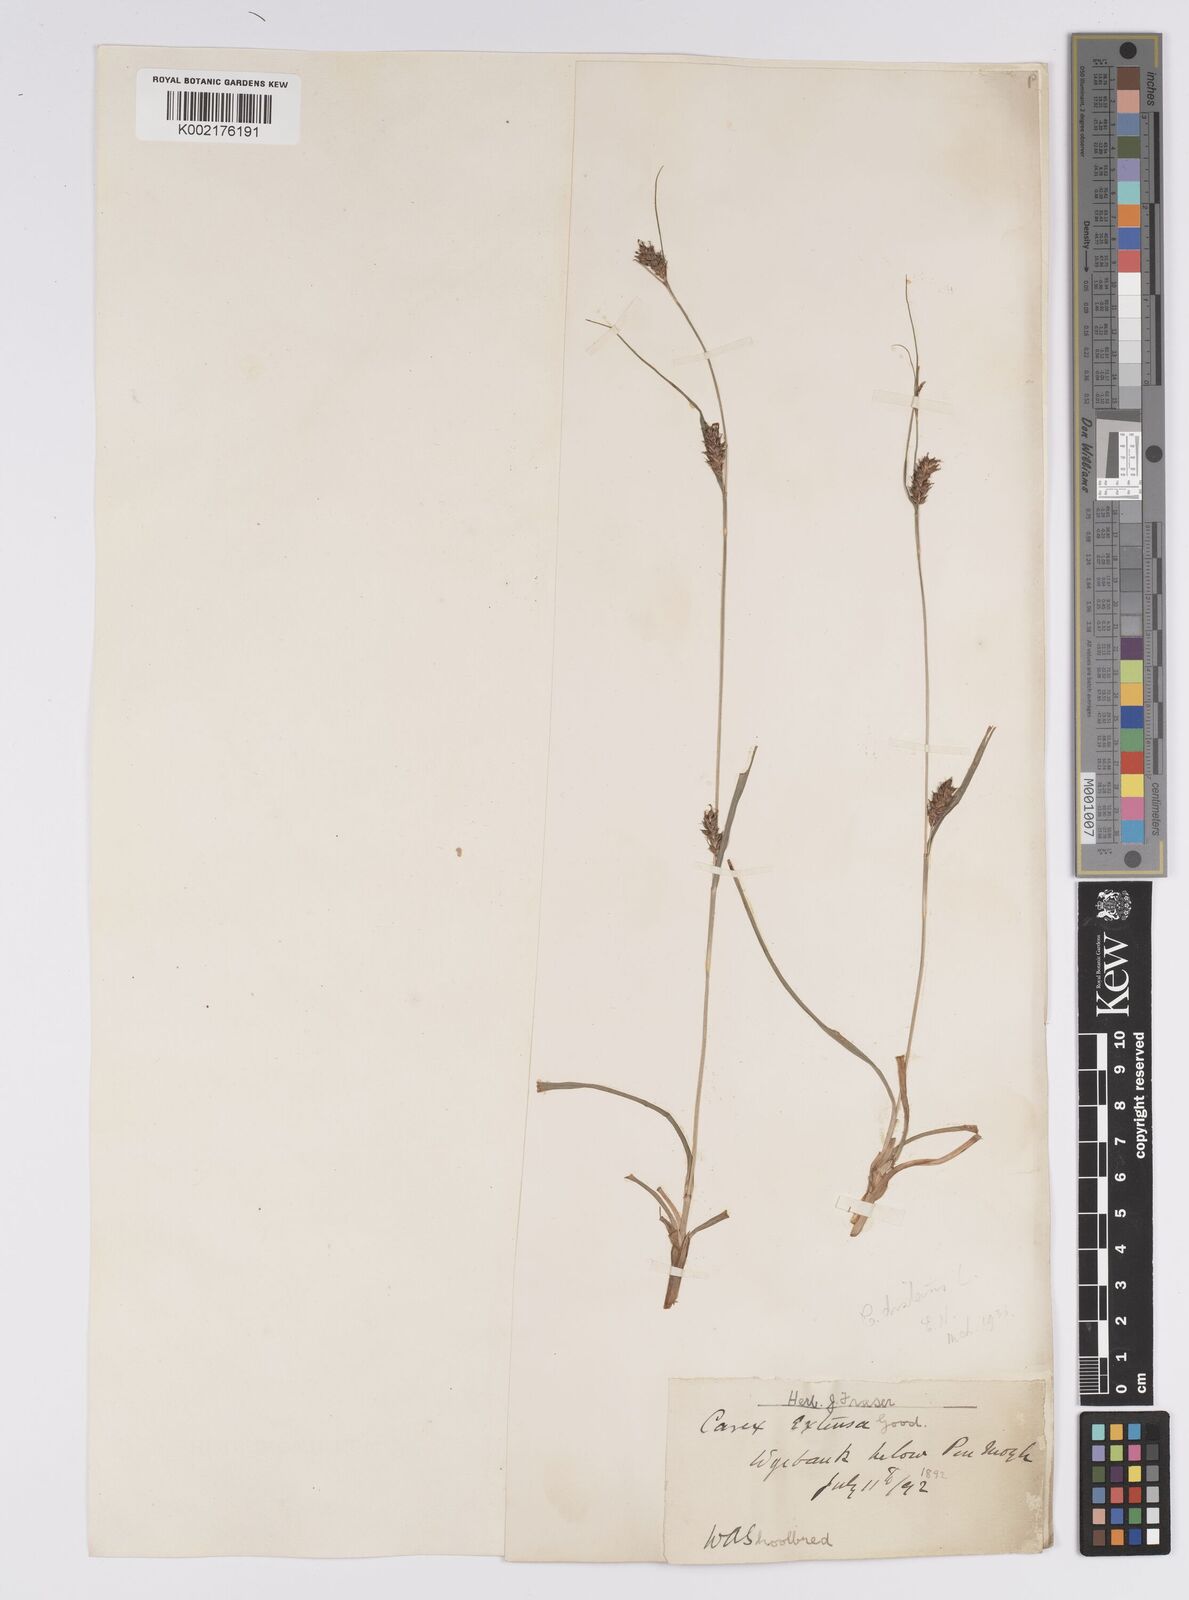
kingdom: Plantae
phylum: Tracheophyta
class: Liliopsida
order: Poales
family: Cyperaceae
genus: Carex
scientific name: Carex distans
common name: Distant sedge
